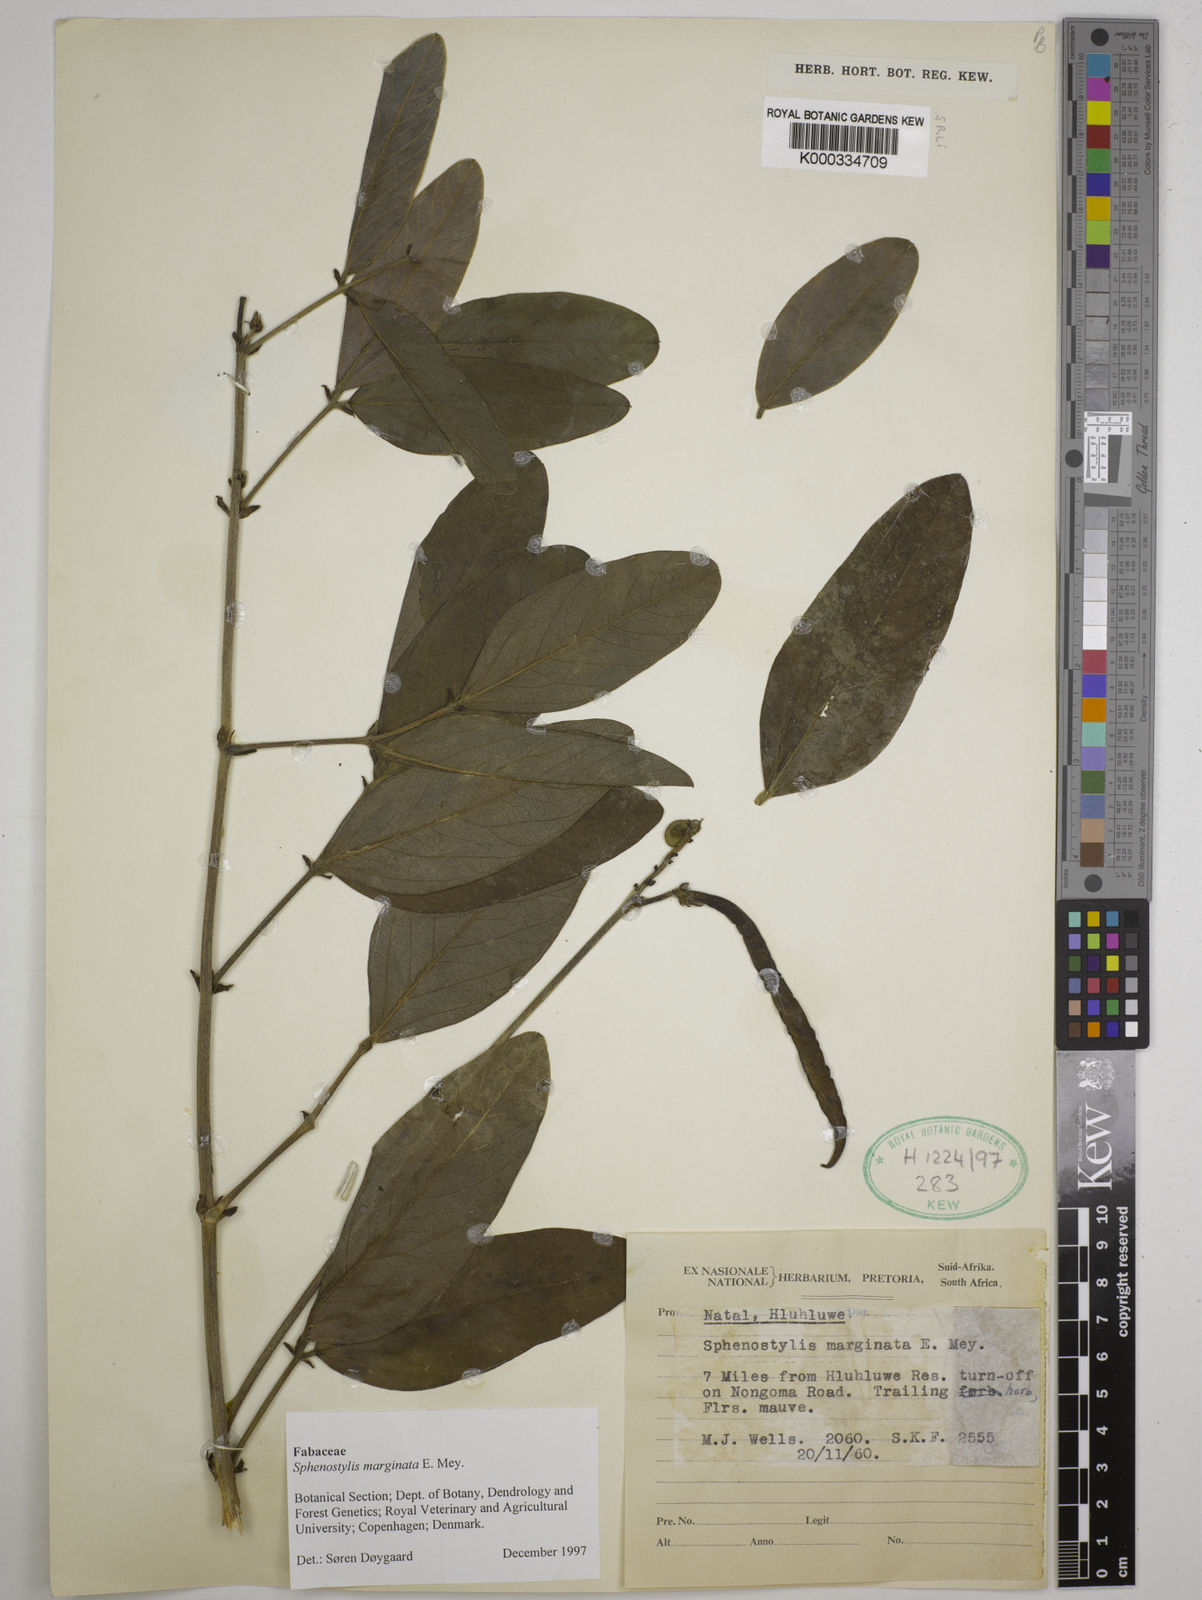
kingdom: Plantae
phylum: Tracheophyta
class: Magnoliopsida
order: Fabales
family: Fabaceae
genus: Sphenostylis
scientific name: Sphenostylis marginata
